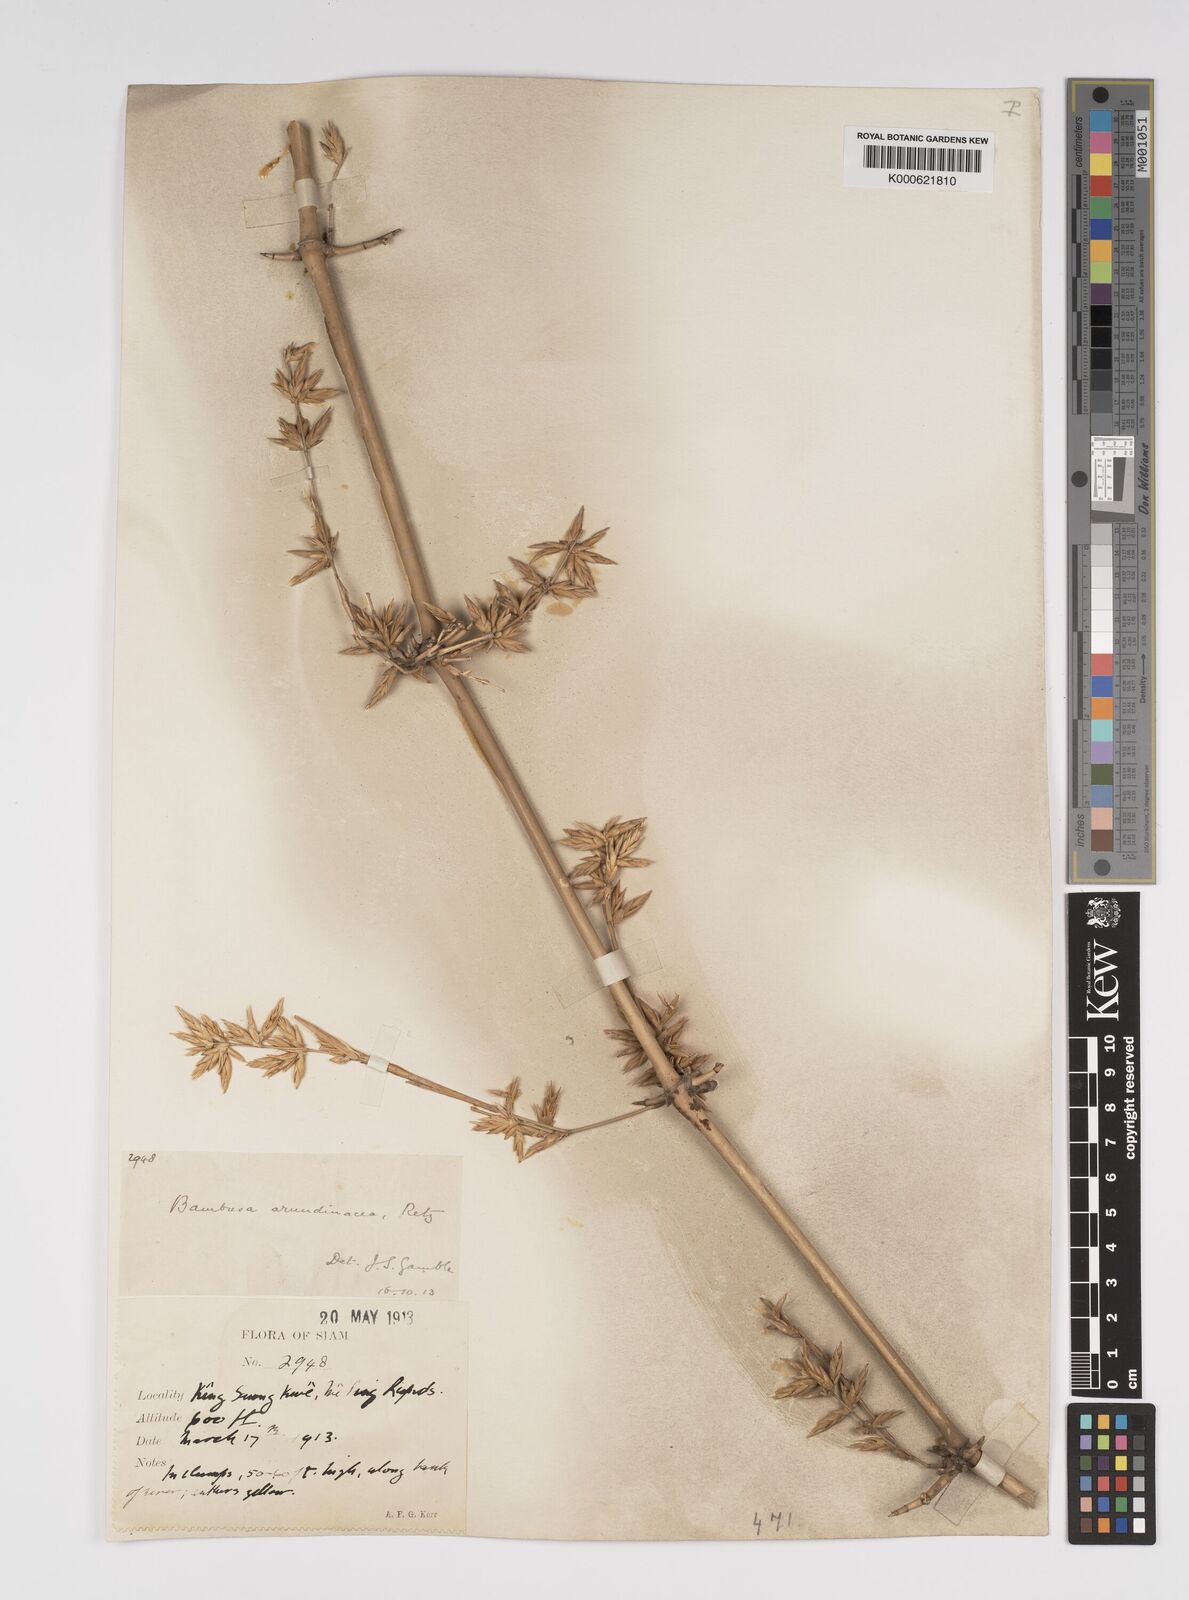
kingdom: Plantae
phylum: Tracheophyta
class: Liliopsida
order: Poales
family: Poaceae
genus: Bambusa
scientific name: Bambusa bambos
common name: Indian thorny bamboo
